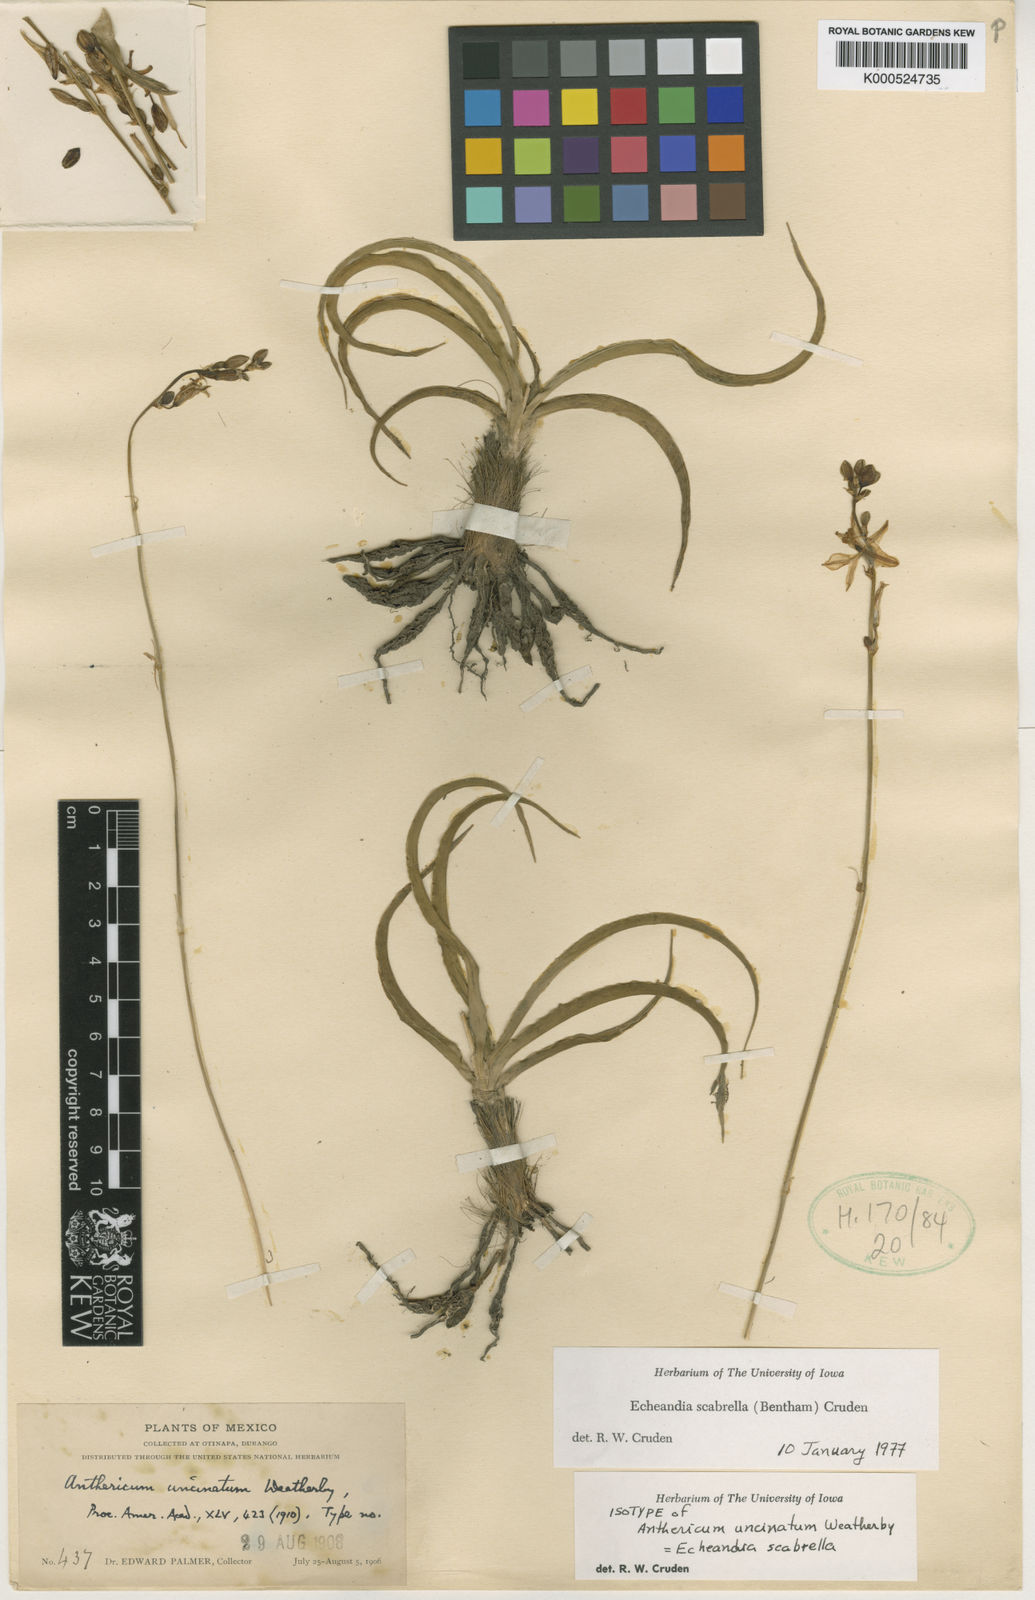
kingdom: Plantae
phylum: Tracheophyta
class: Liliopsida
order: Asparagales
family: Asparagaceae
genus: Echeandia
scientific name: Echeandia scabrella
